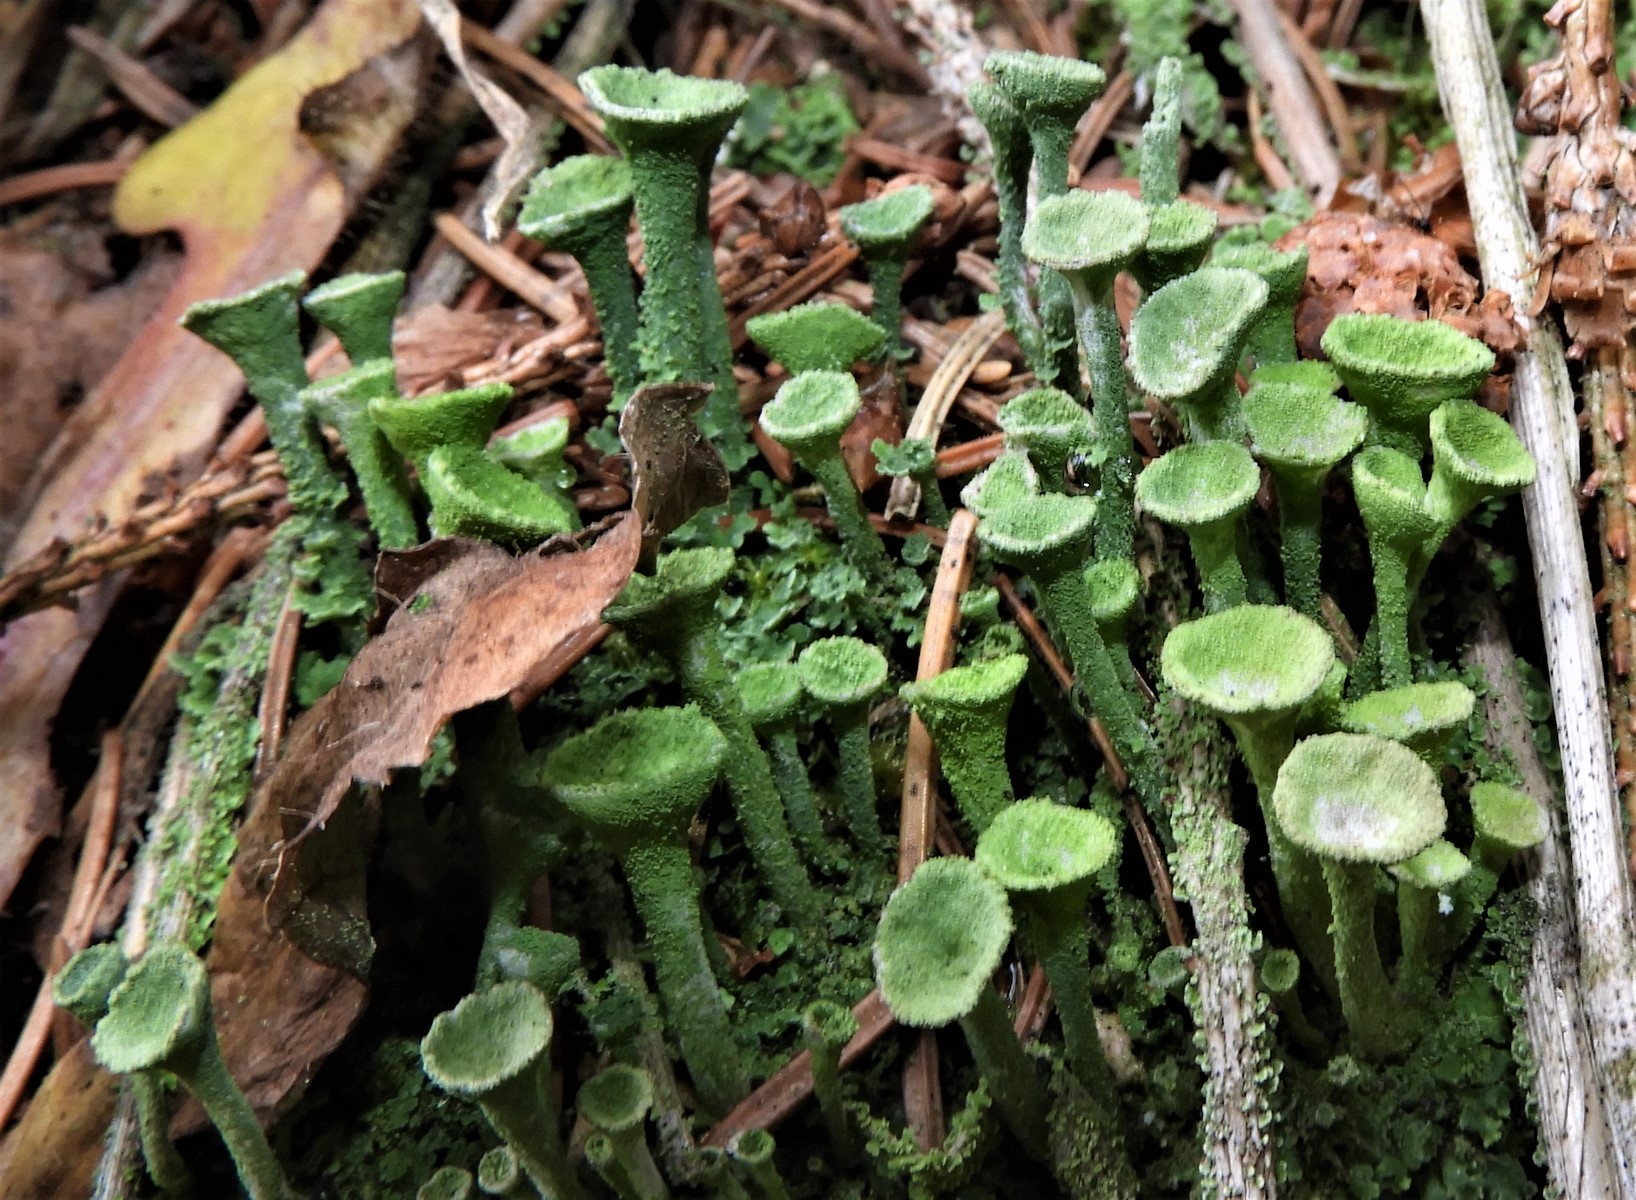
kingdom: Fungi
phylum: Ascomycota
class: Lecanoromycetes
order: Lecanorales
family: Cladoniaceae
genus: Cladonia
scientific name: Cladonia fimbriata
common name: bleggrøn bægerlav
